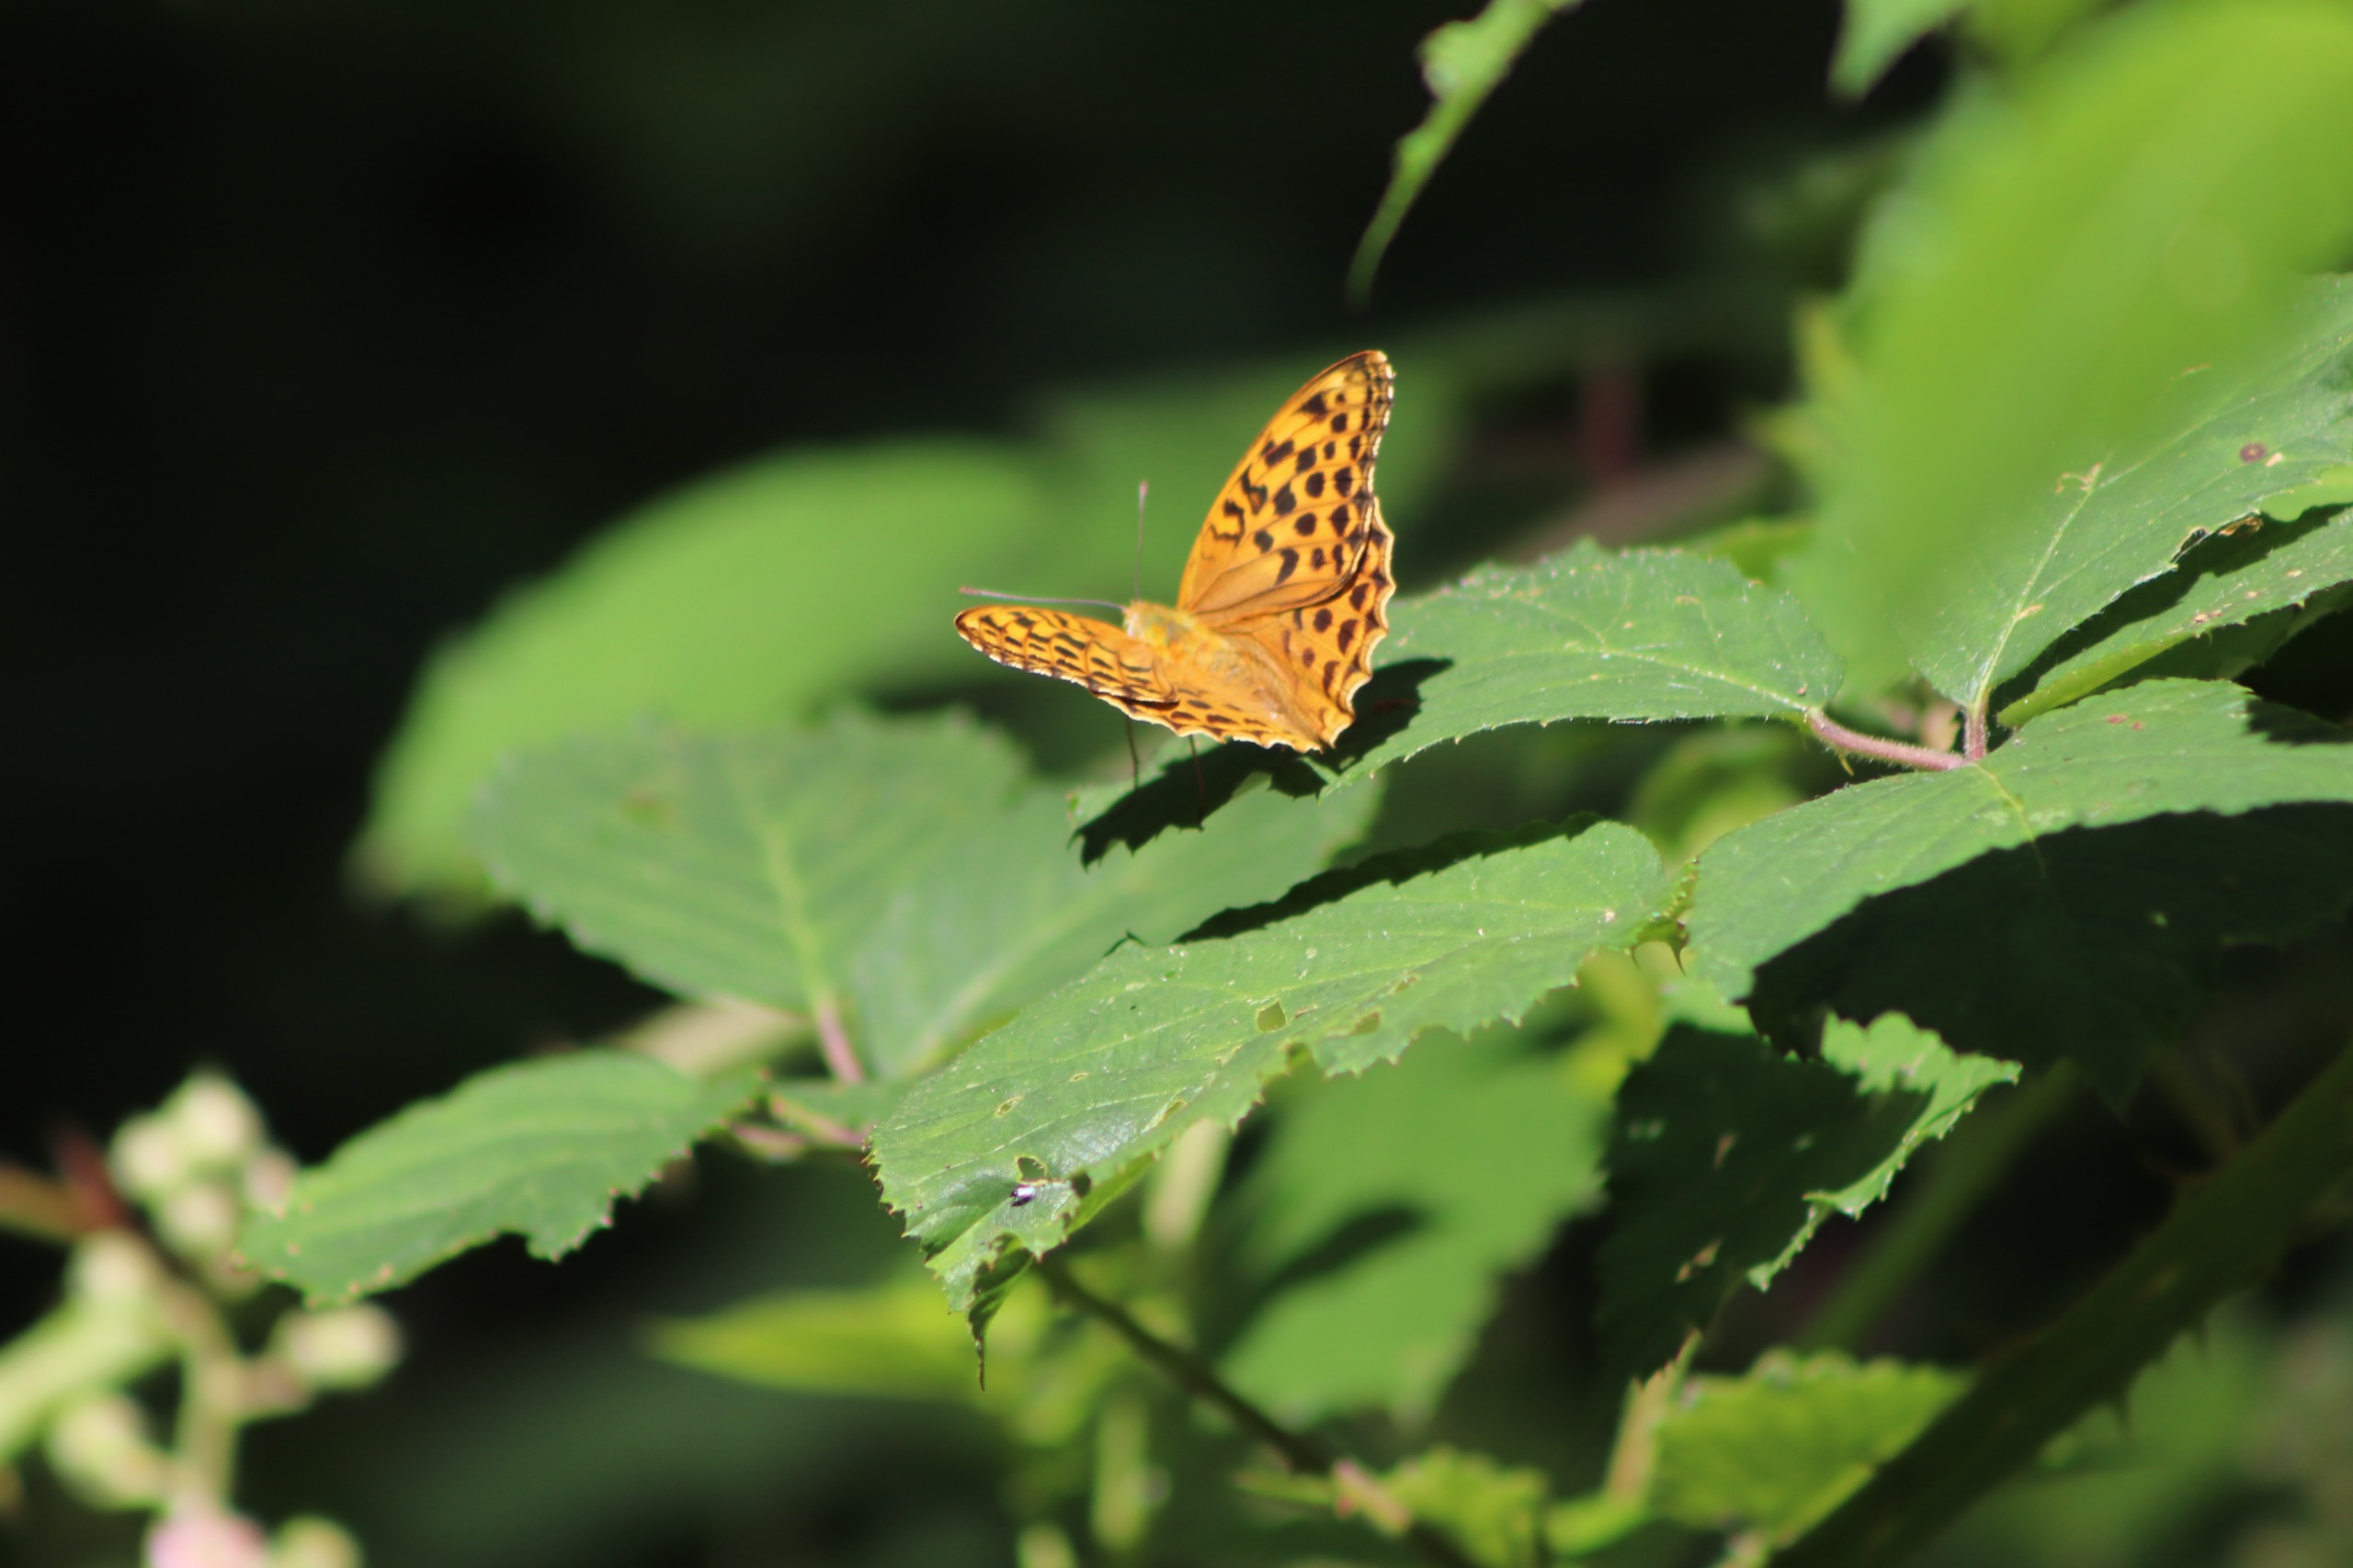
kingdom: Animalia
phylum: Arthropoda
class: Insecta
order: Lepidoptera
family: Nymphalidae
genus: Argynnis
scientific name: Argynnis paphia
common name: Kejserkåbe
